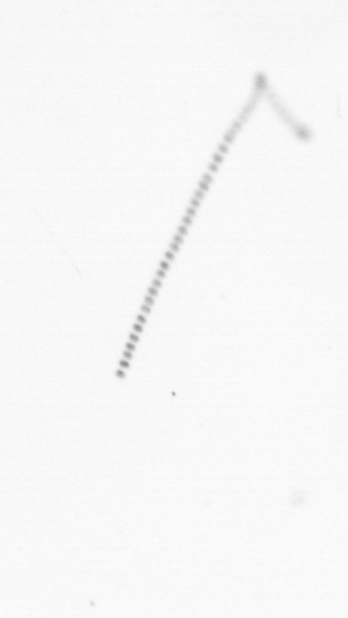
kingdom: Chromista
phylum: Ochrophyta
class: Bacillariophyceae
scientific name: Bacillariophyceae
